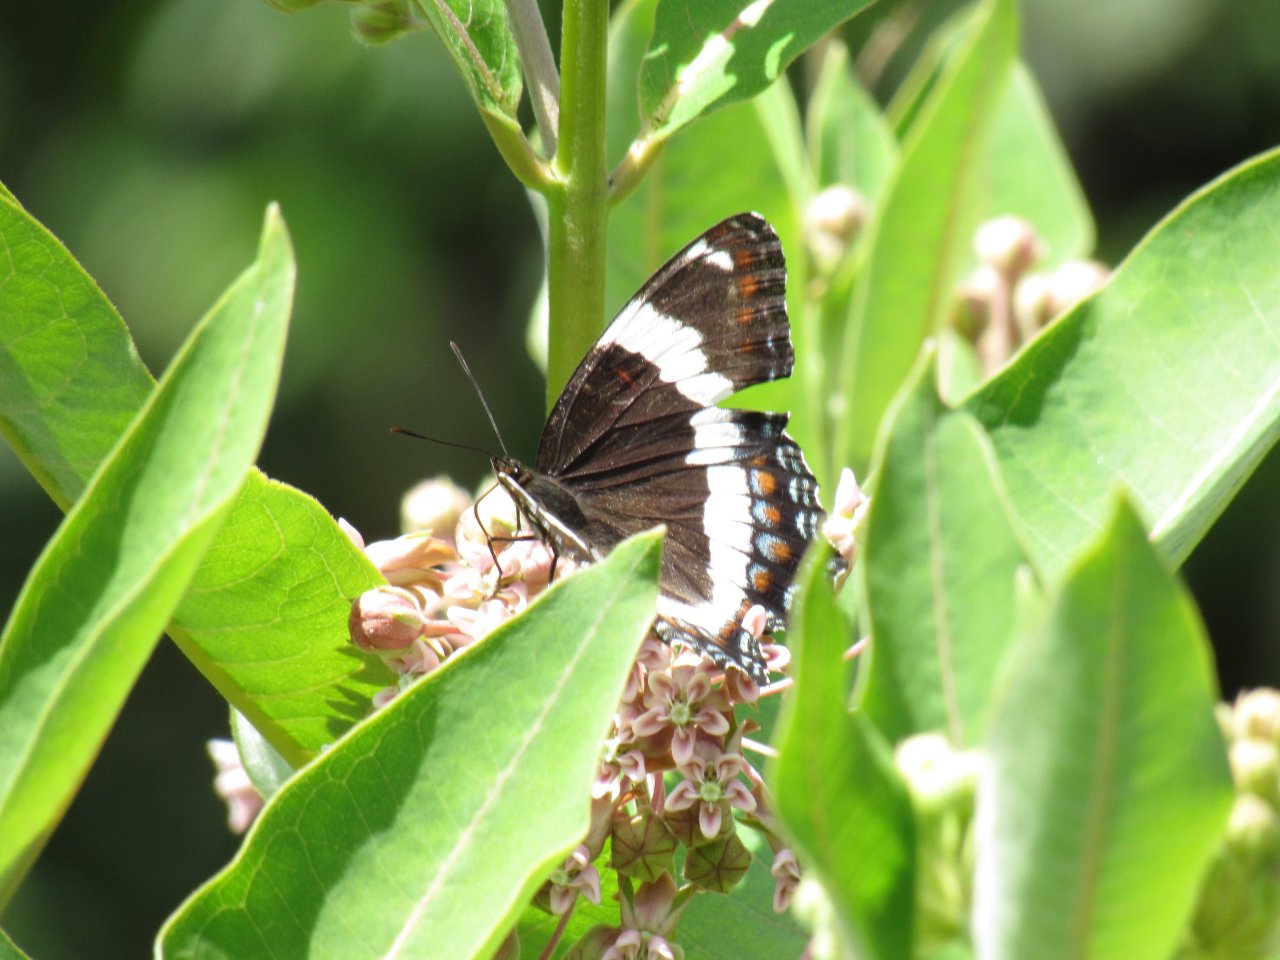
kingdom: Animalia
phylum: Arthropoda
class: Insecta
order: Lepidoptera
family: Nymphalidae
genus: Limenitis
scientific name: Limenitis arthemis
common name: Red-spotted Admiral
